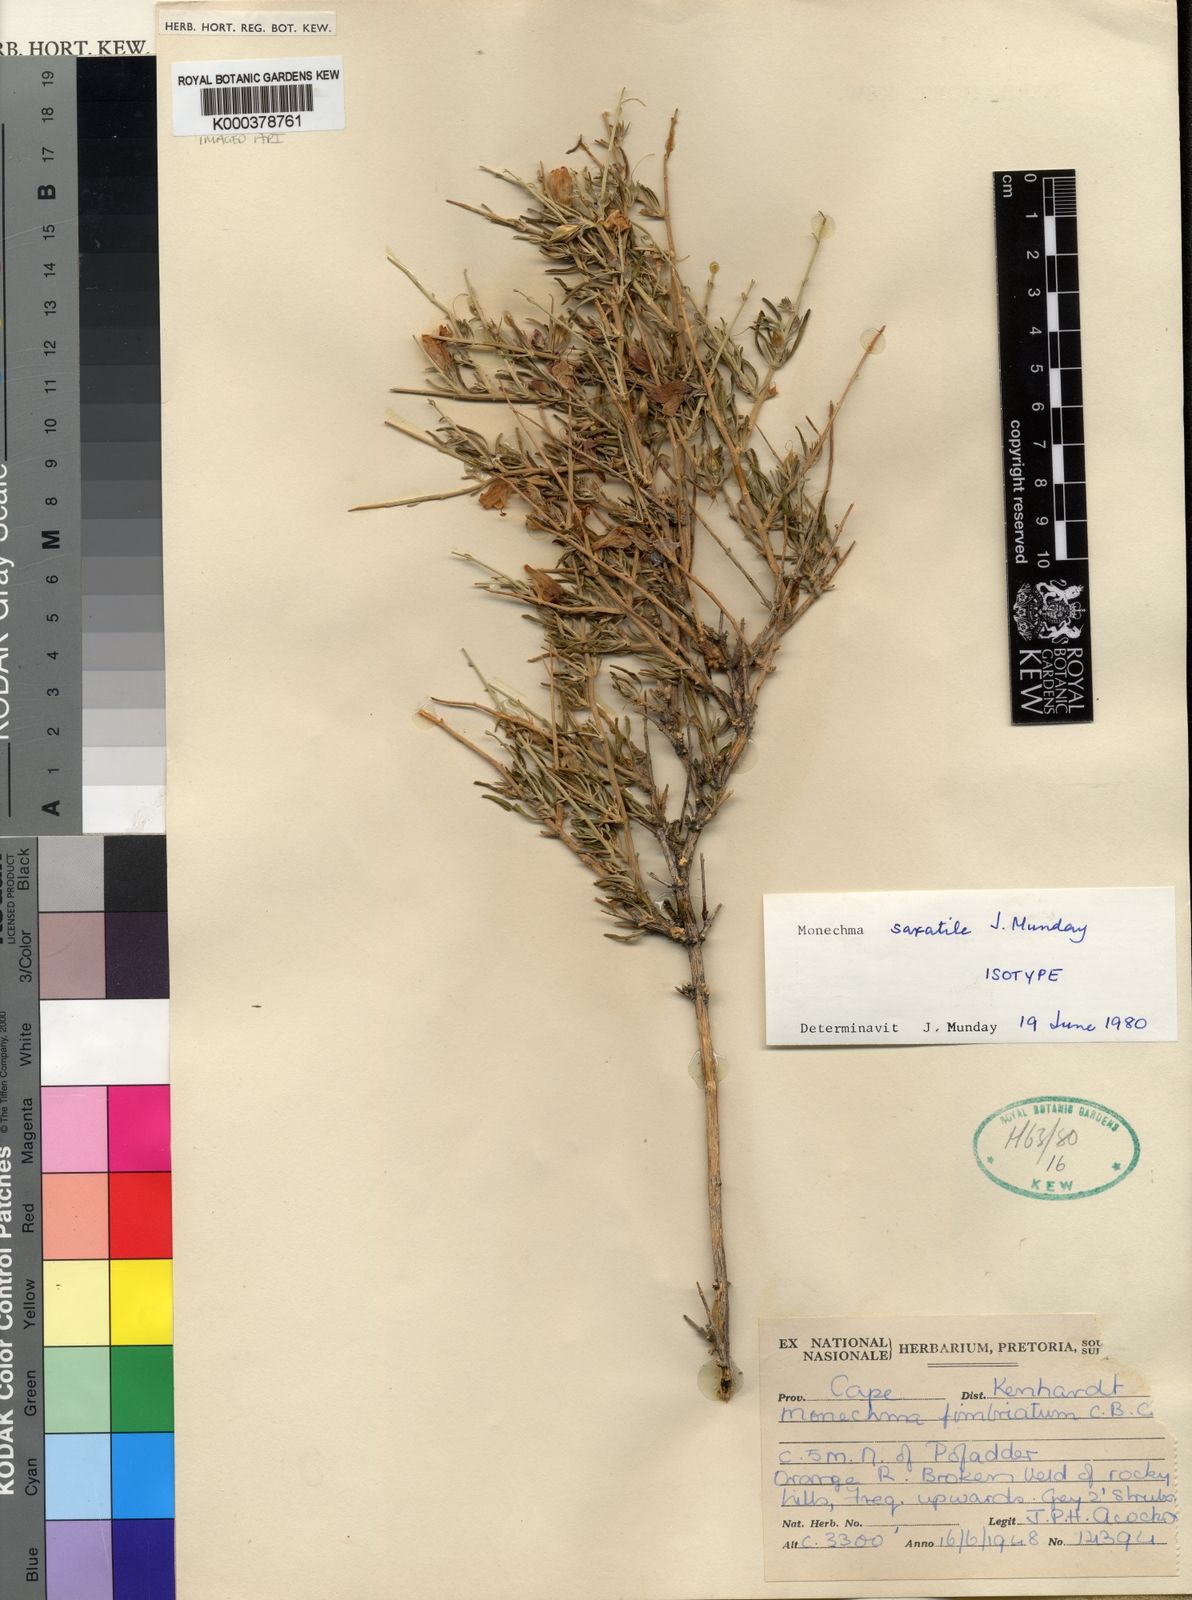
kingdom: Plantae
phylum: Tracheophyta
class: Magnoliopsida
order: Lamiales
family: Acanthaceae
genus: Monechma
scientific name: Monechma saxatile
